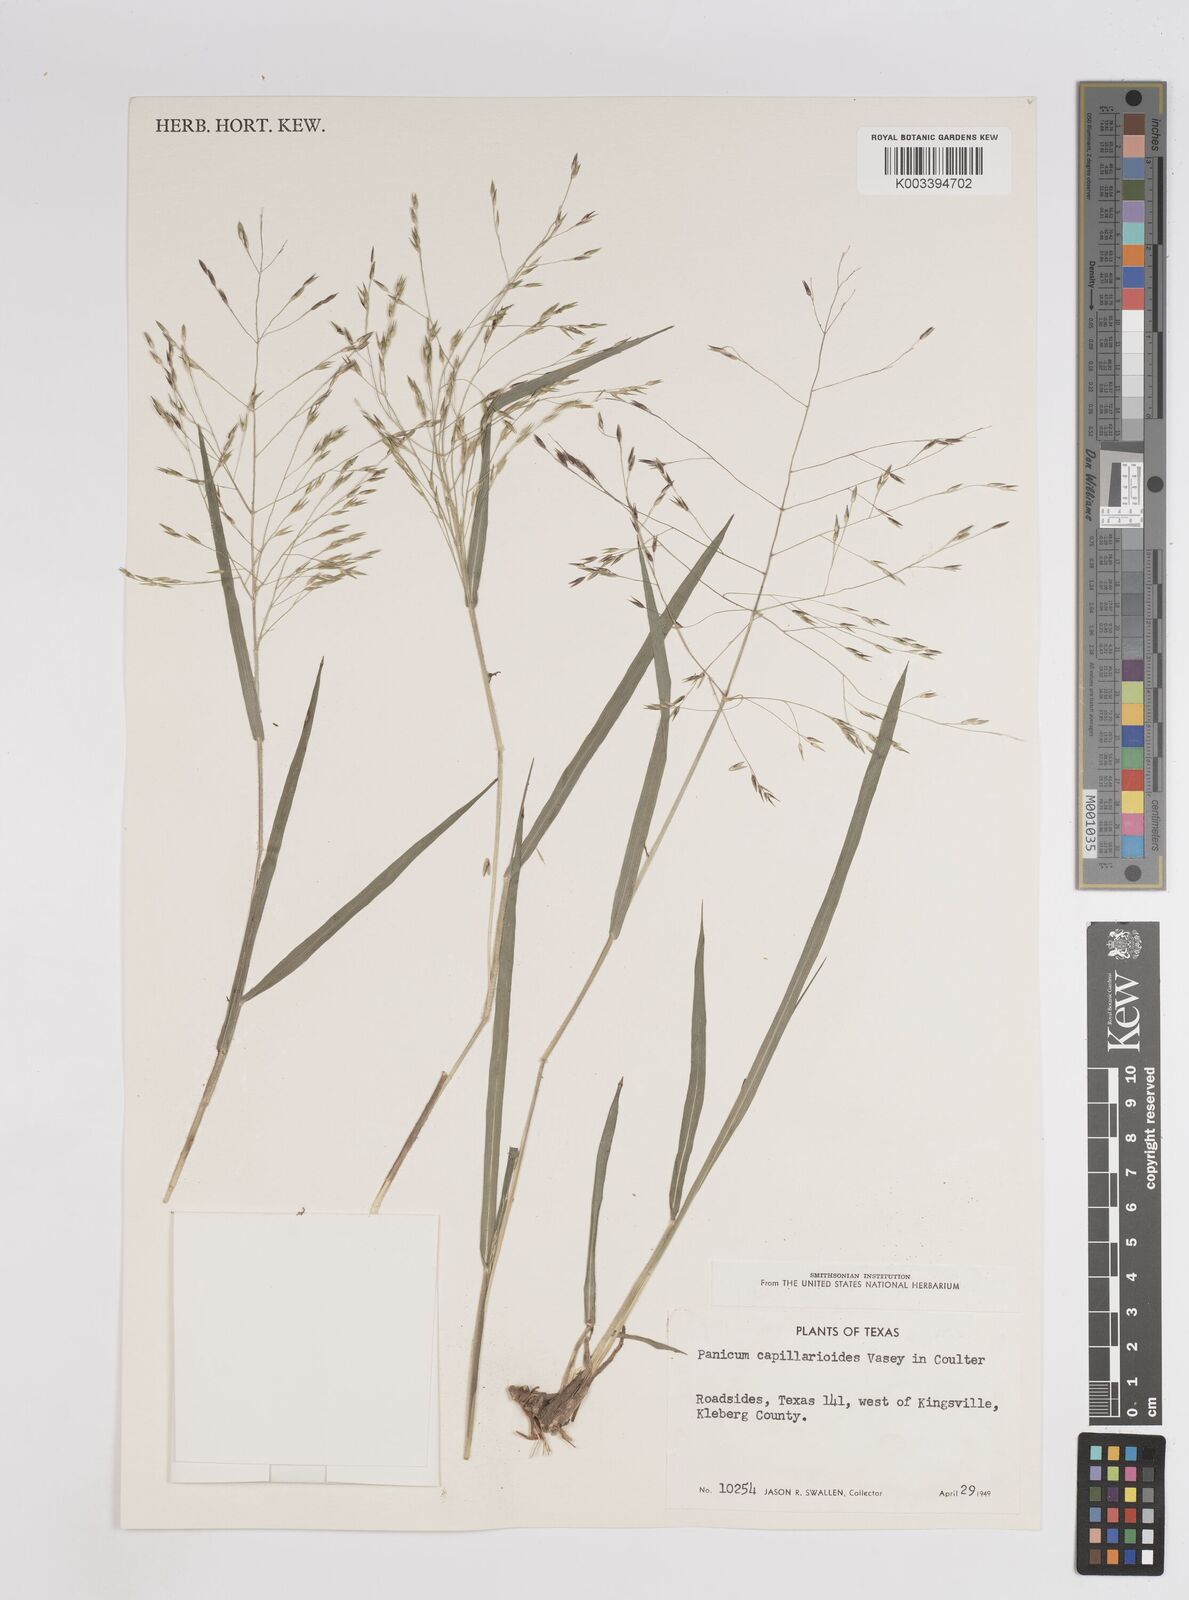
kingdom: Plantae
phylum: Tracheophyta
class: Liliopsida
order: Poales
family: Poaceae
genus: Panicum
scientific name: Panicum capillarioides
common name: Long-beak witchgrass
